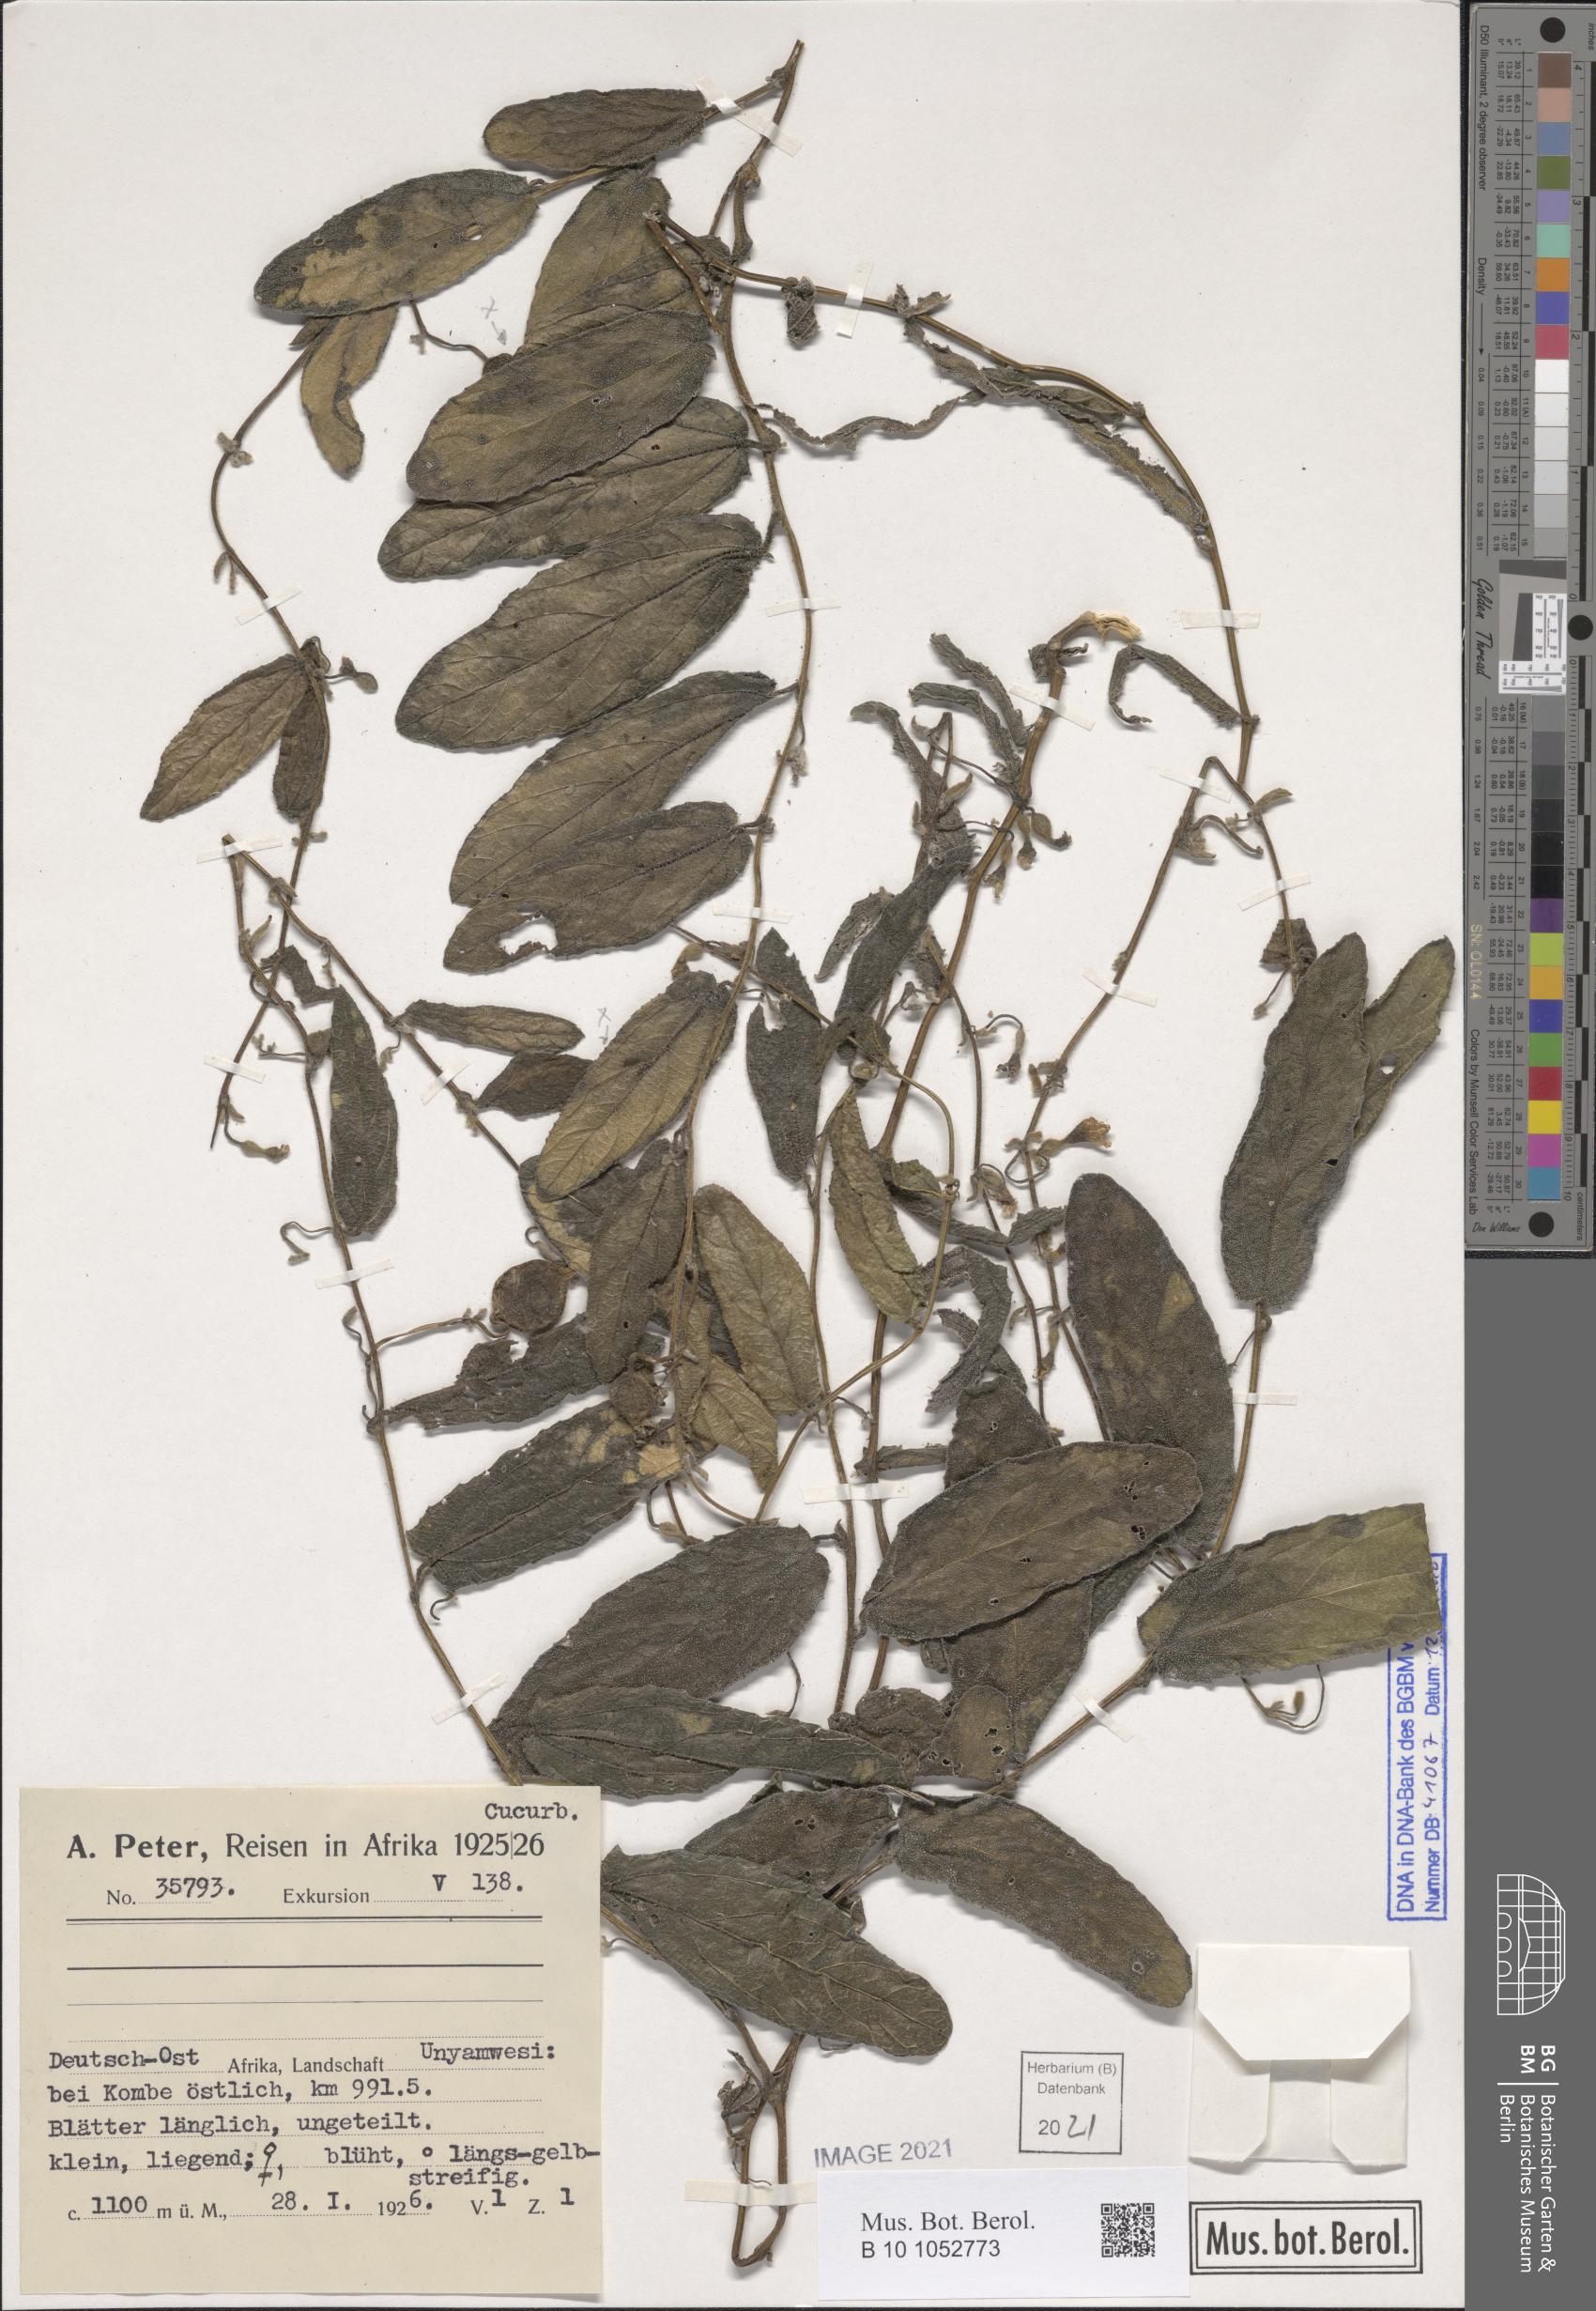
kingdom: Plantae
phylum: Tracheophyta
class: Magnoliopsida
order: Cucurbitales
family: Cucurbitaceae
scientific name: Cucurbitaceae
